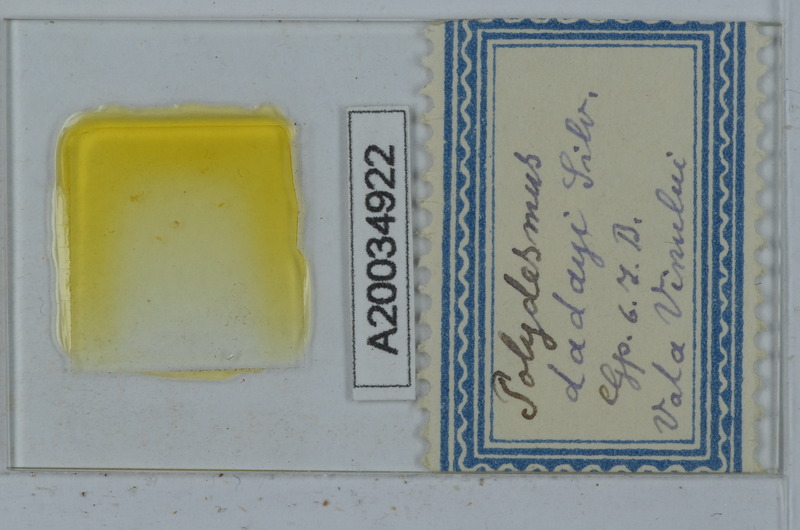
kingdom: Animalia
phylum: Arthropoda
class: Diplopoda
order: Polydesmida
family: Polydesmidae
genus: Polydesmus
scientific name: Polydesmus dadayi
